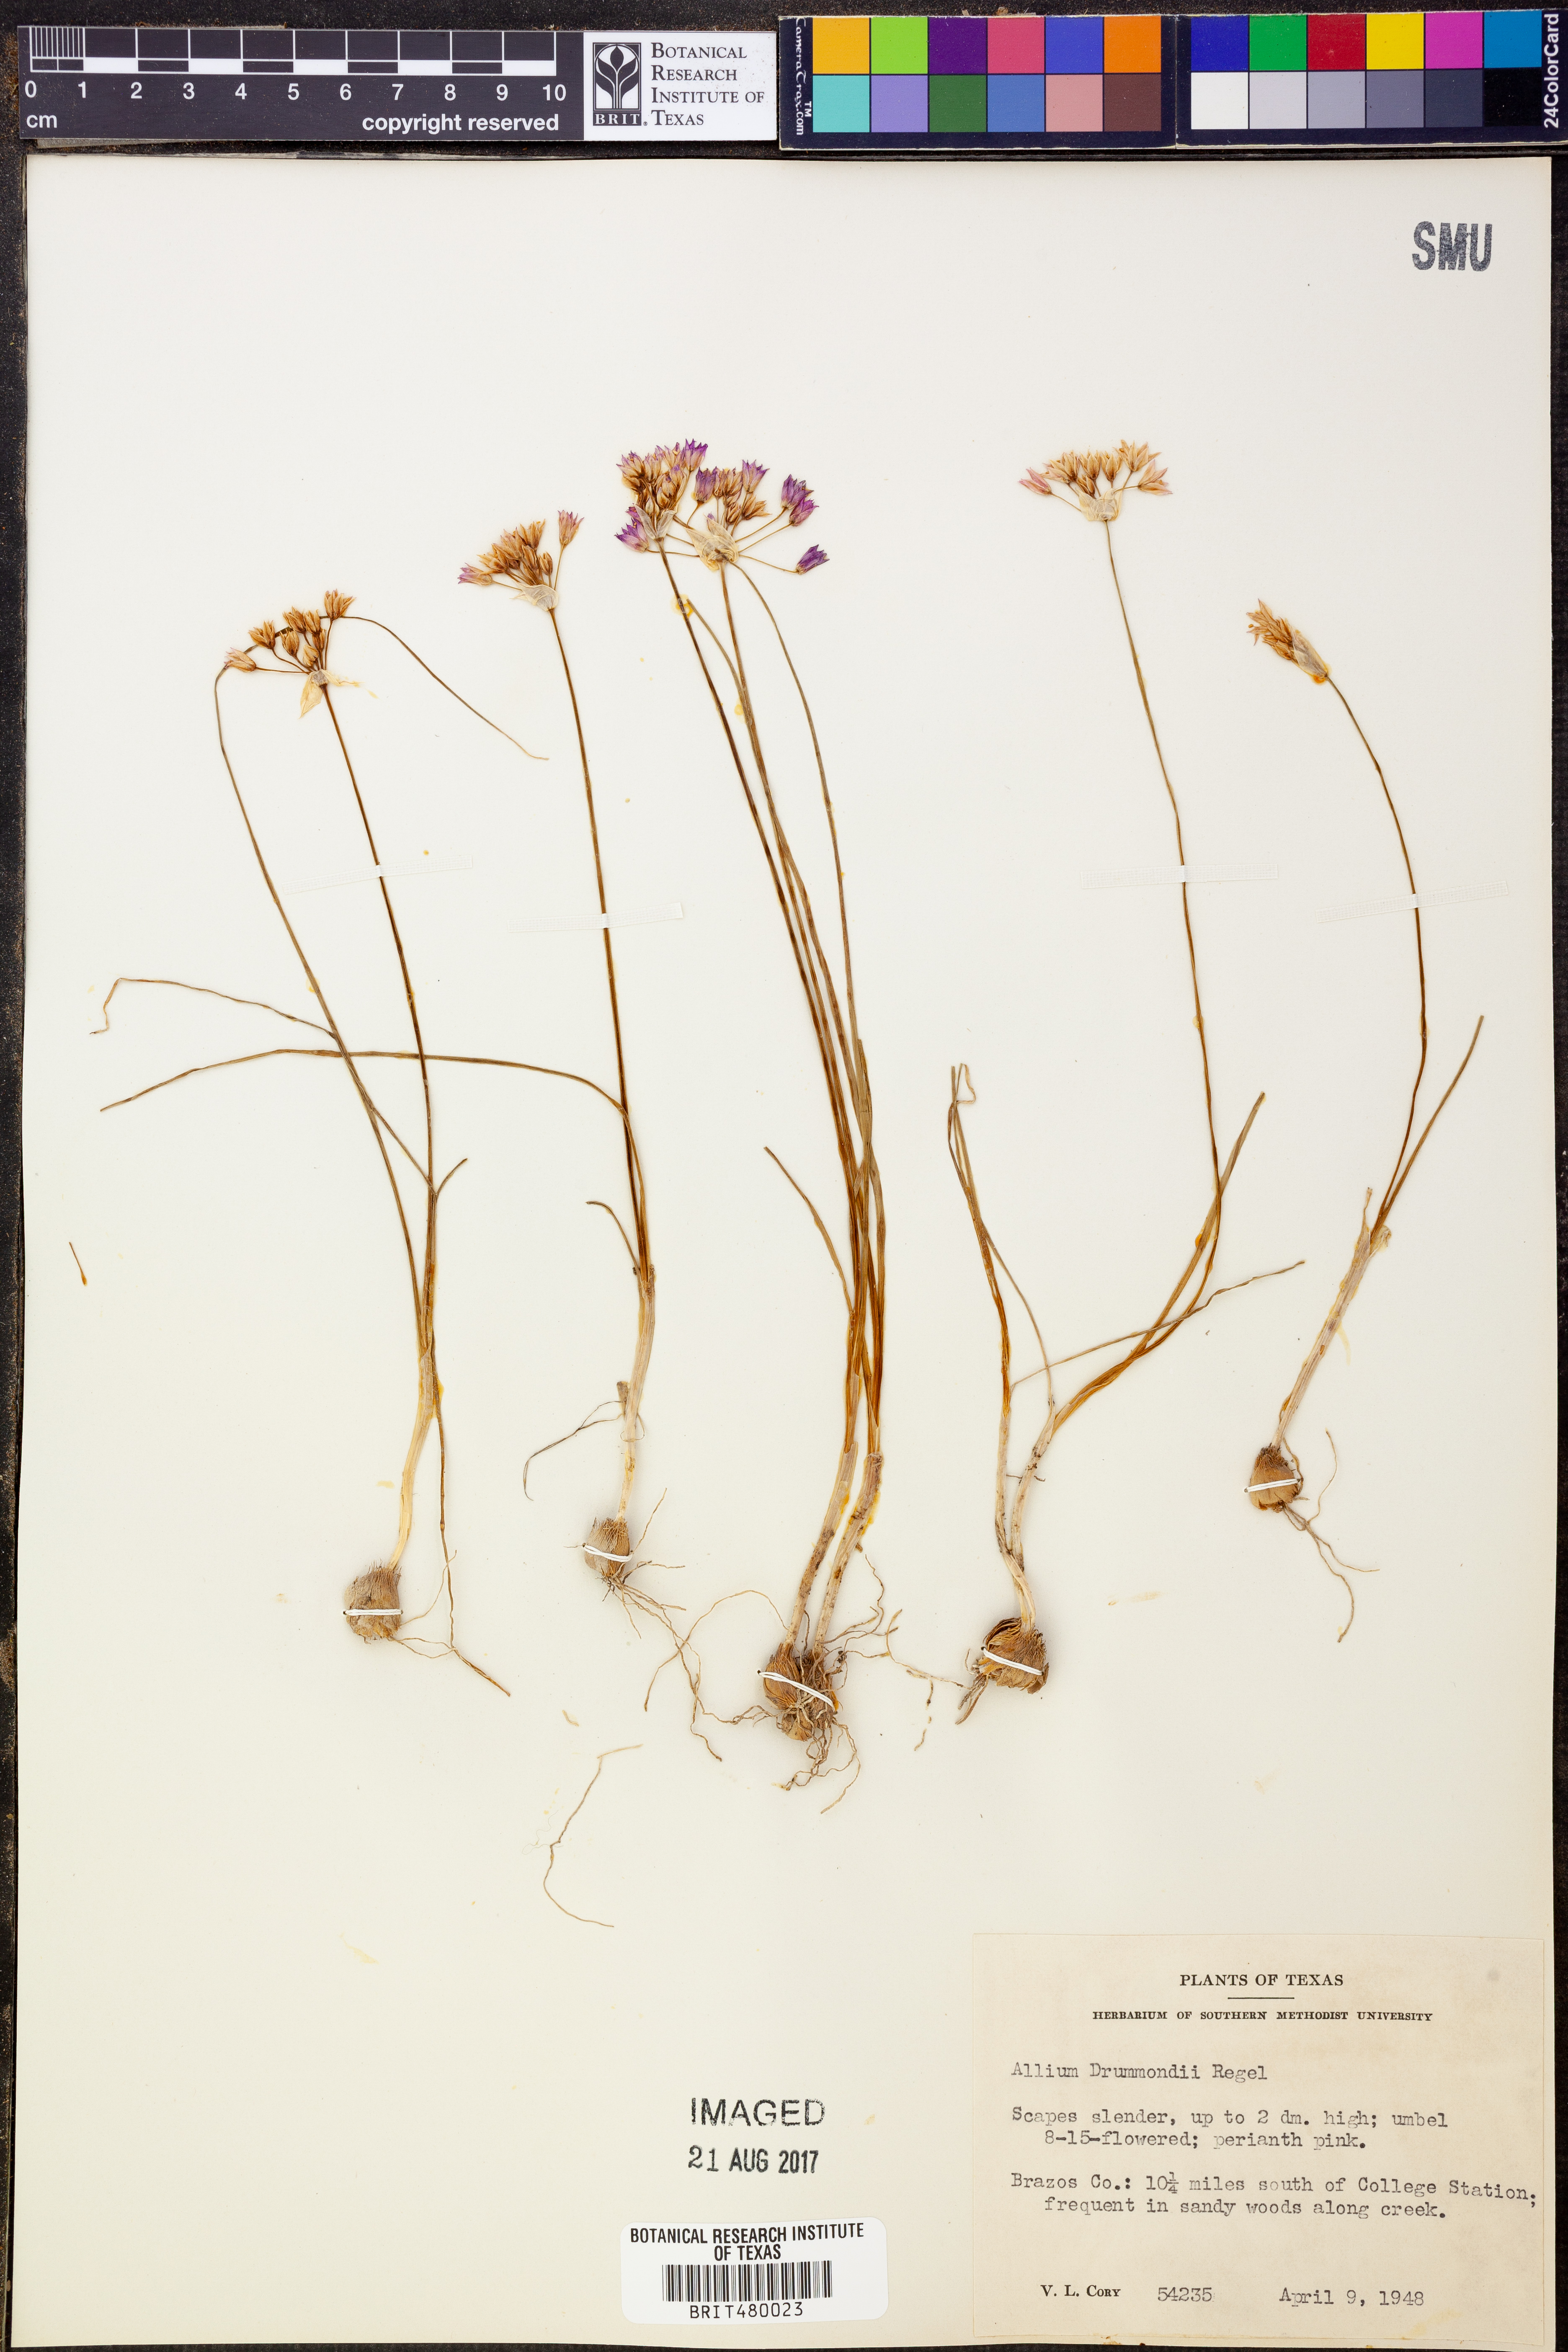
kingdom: Plantae
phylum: Tracheophyta
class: Liliopsida
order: Asparagales
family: Amaryllidaceae
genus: Allium
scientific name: Allium drummondii
